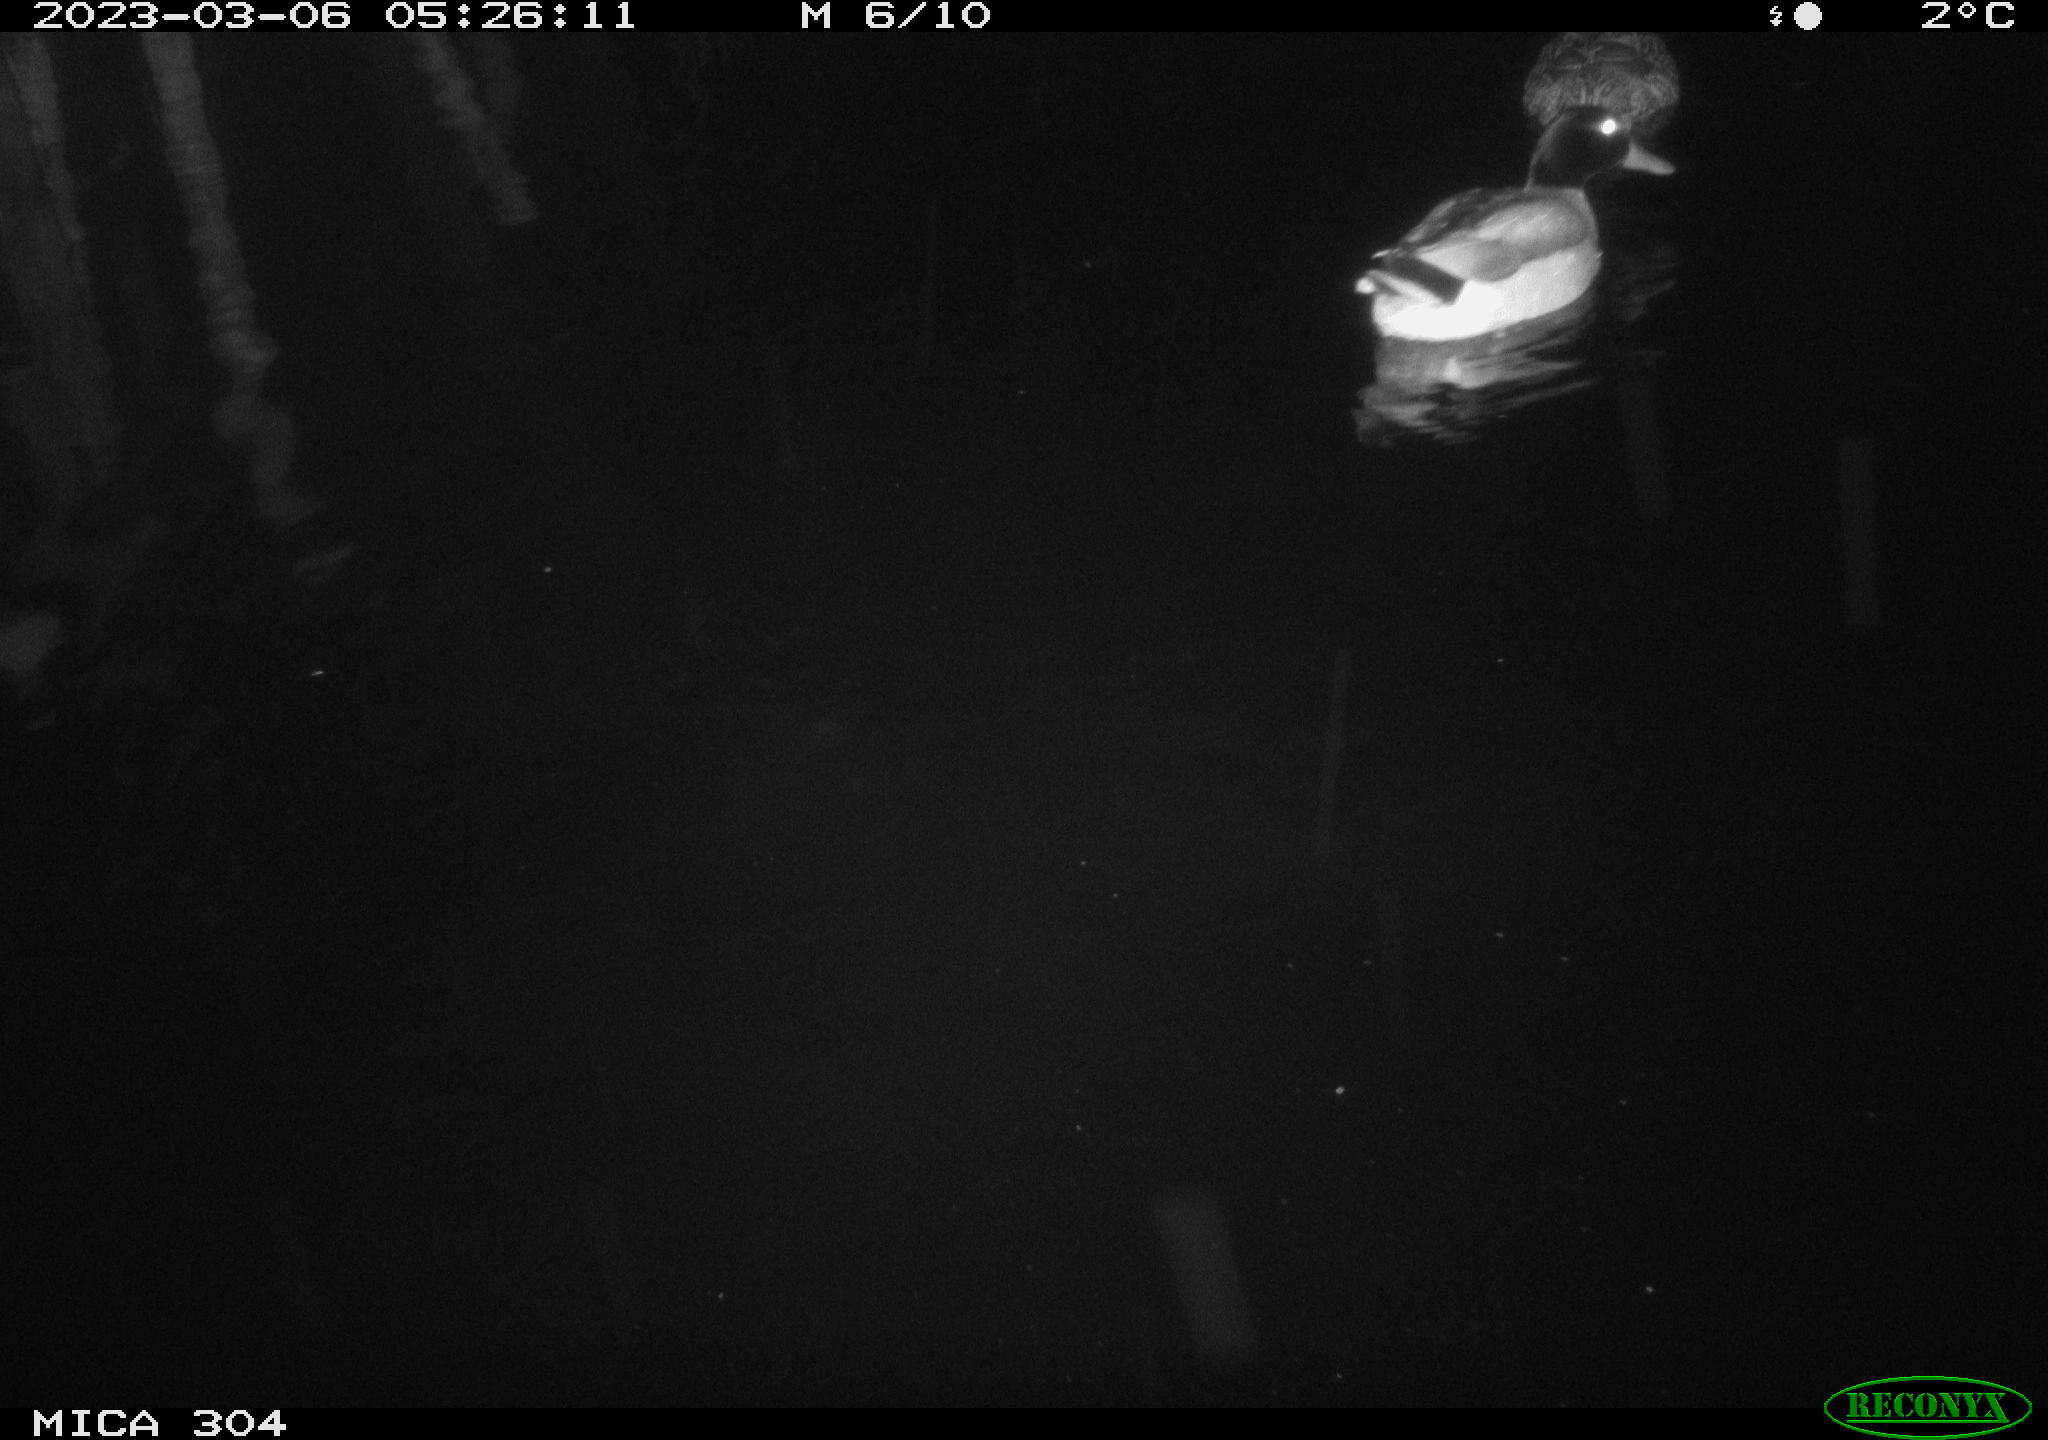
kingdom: Animalia
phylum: Chordata
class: Aves
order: Anseriformes
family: Anatidae
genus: Anas
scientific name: Anas
